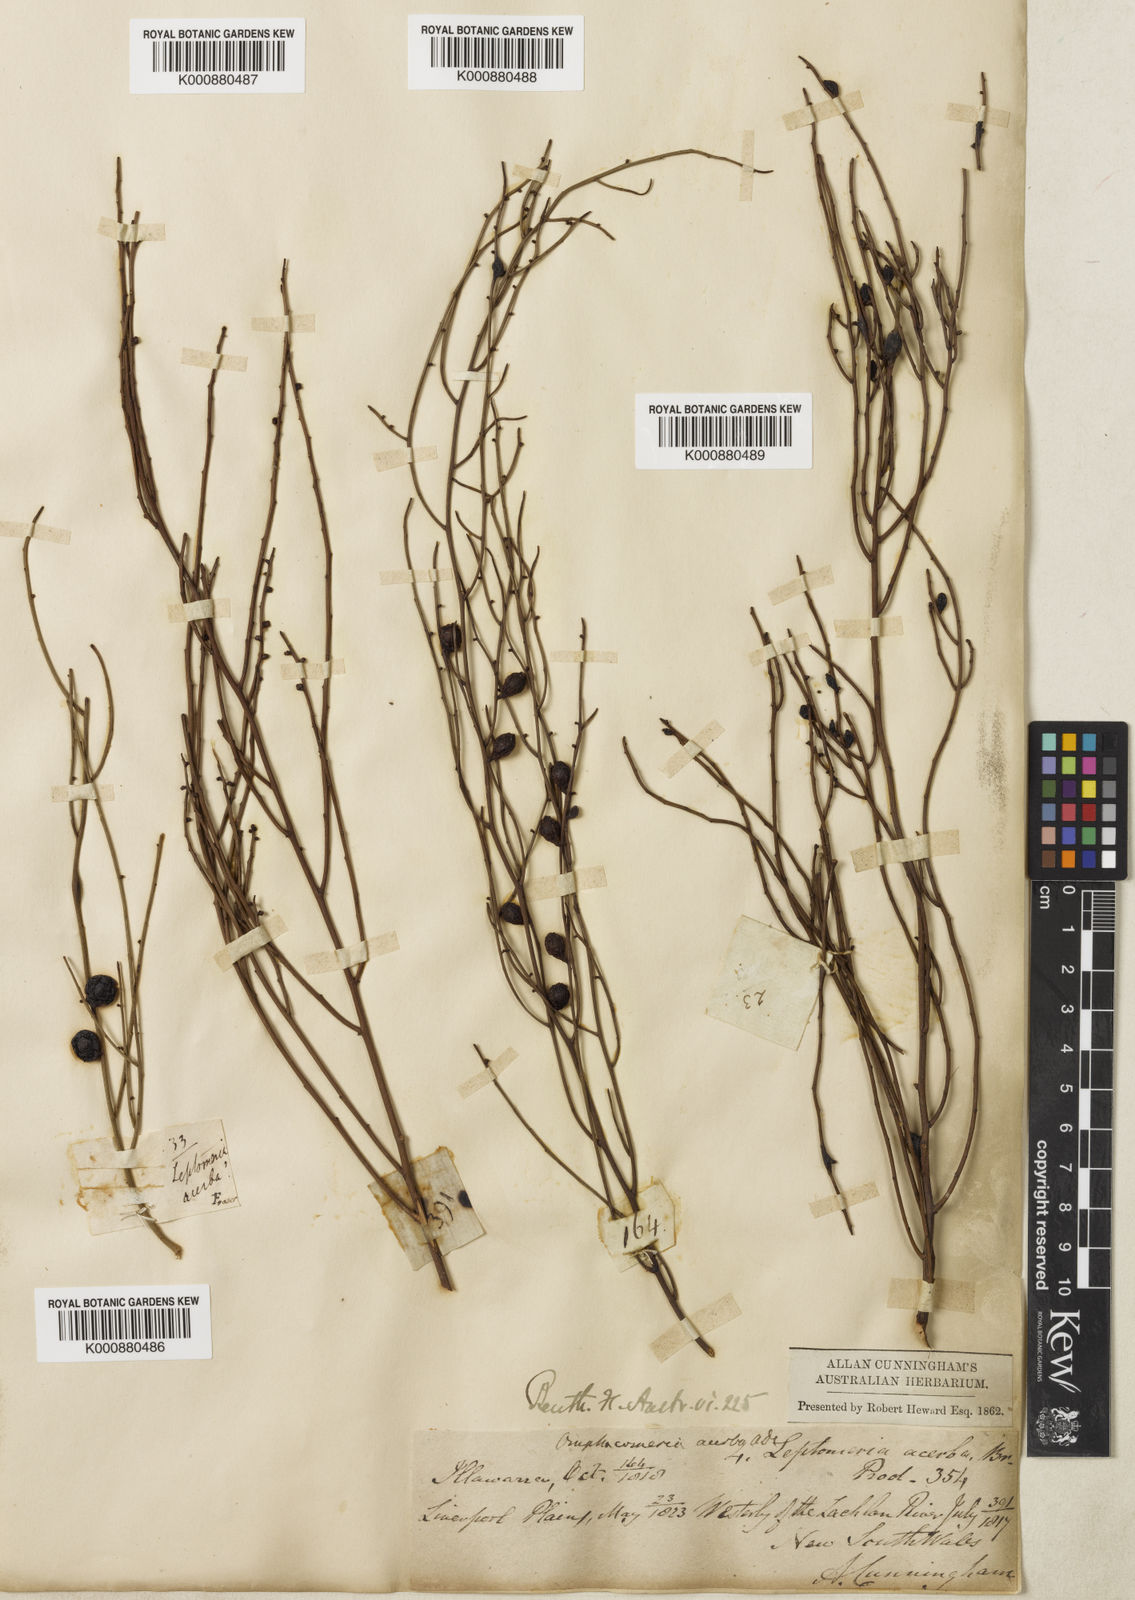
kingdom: Plantae
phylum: Tracheophyta
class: Magnoliopsida
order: Santalales
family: Santalaceae
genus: Omphacomeria
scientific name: Omphacomeria acerba
